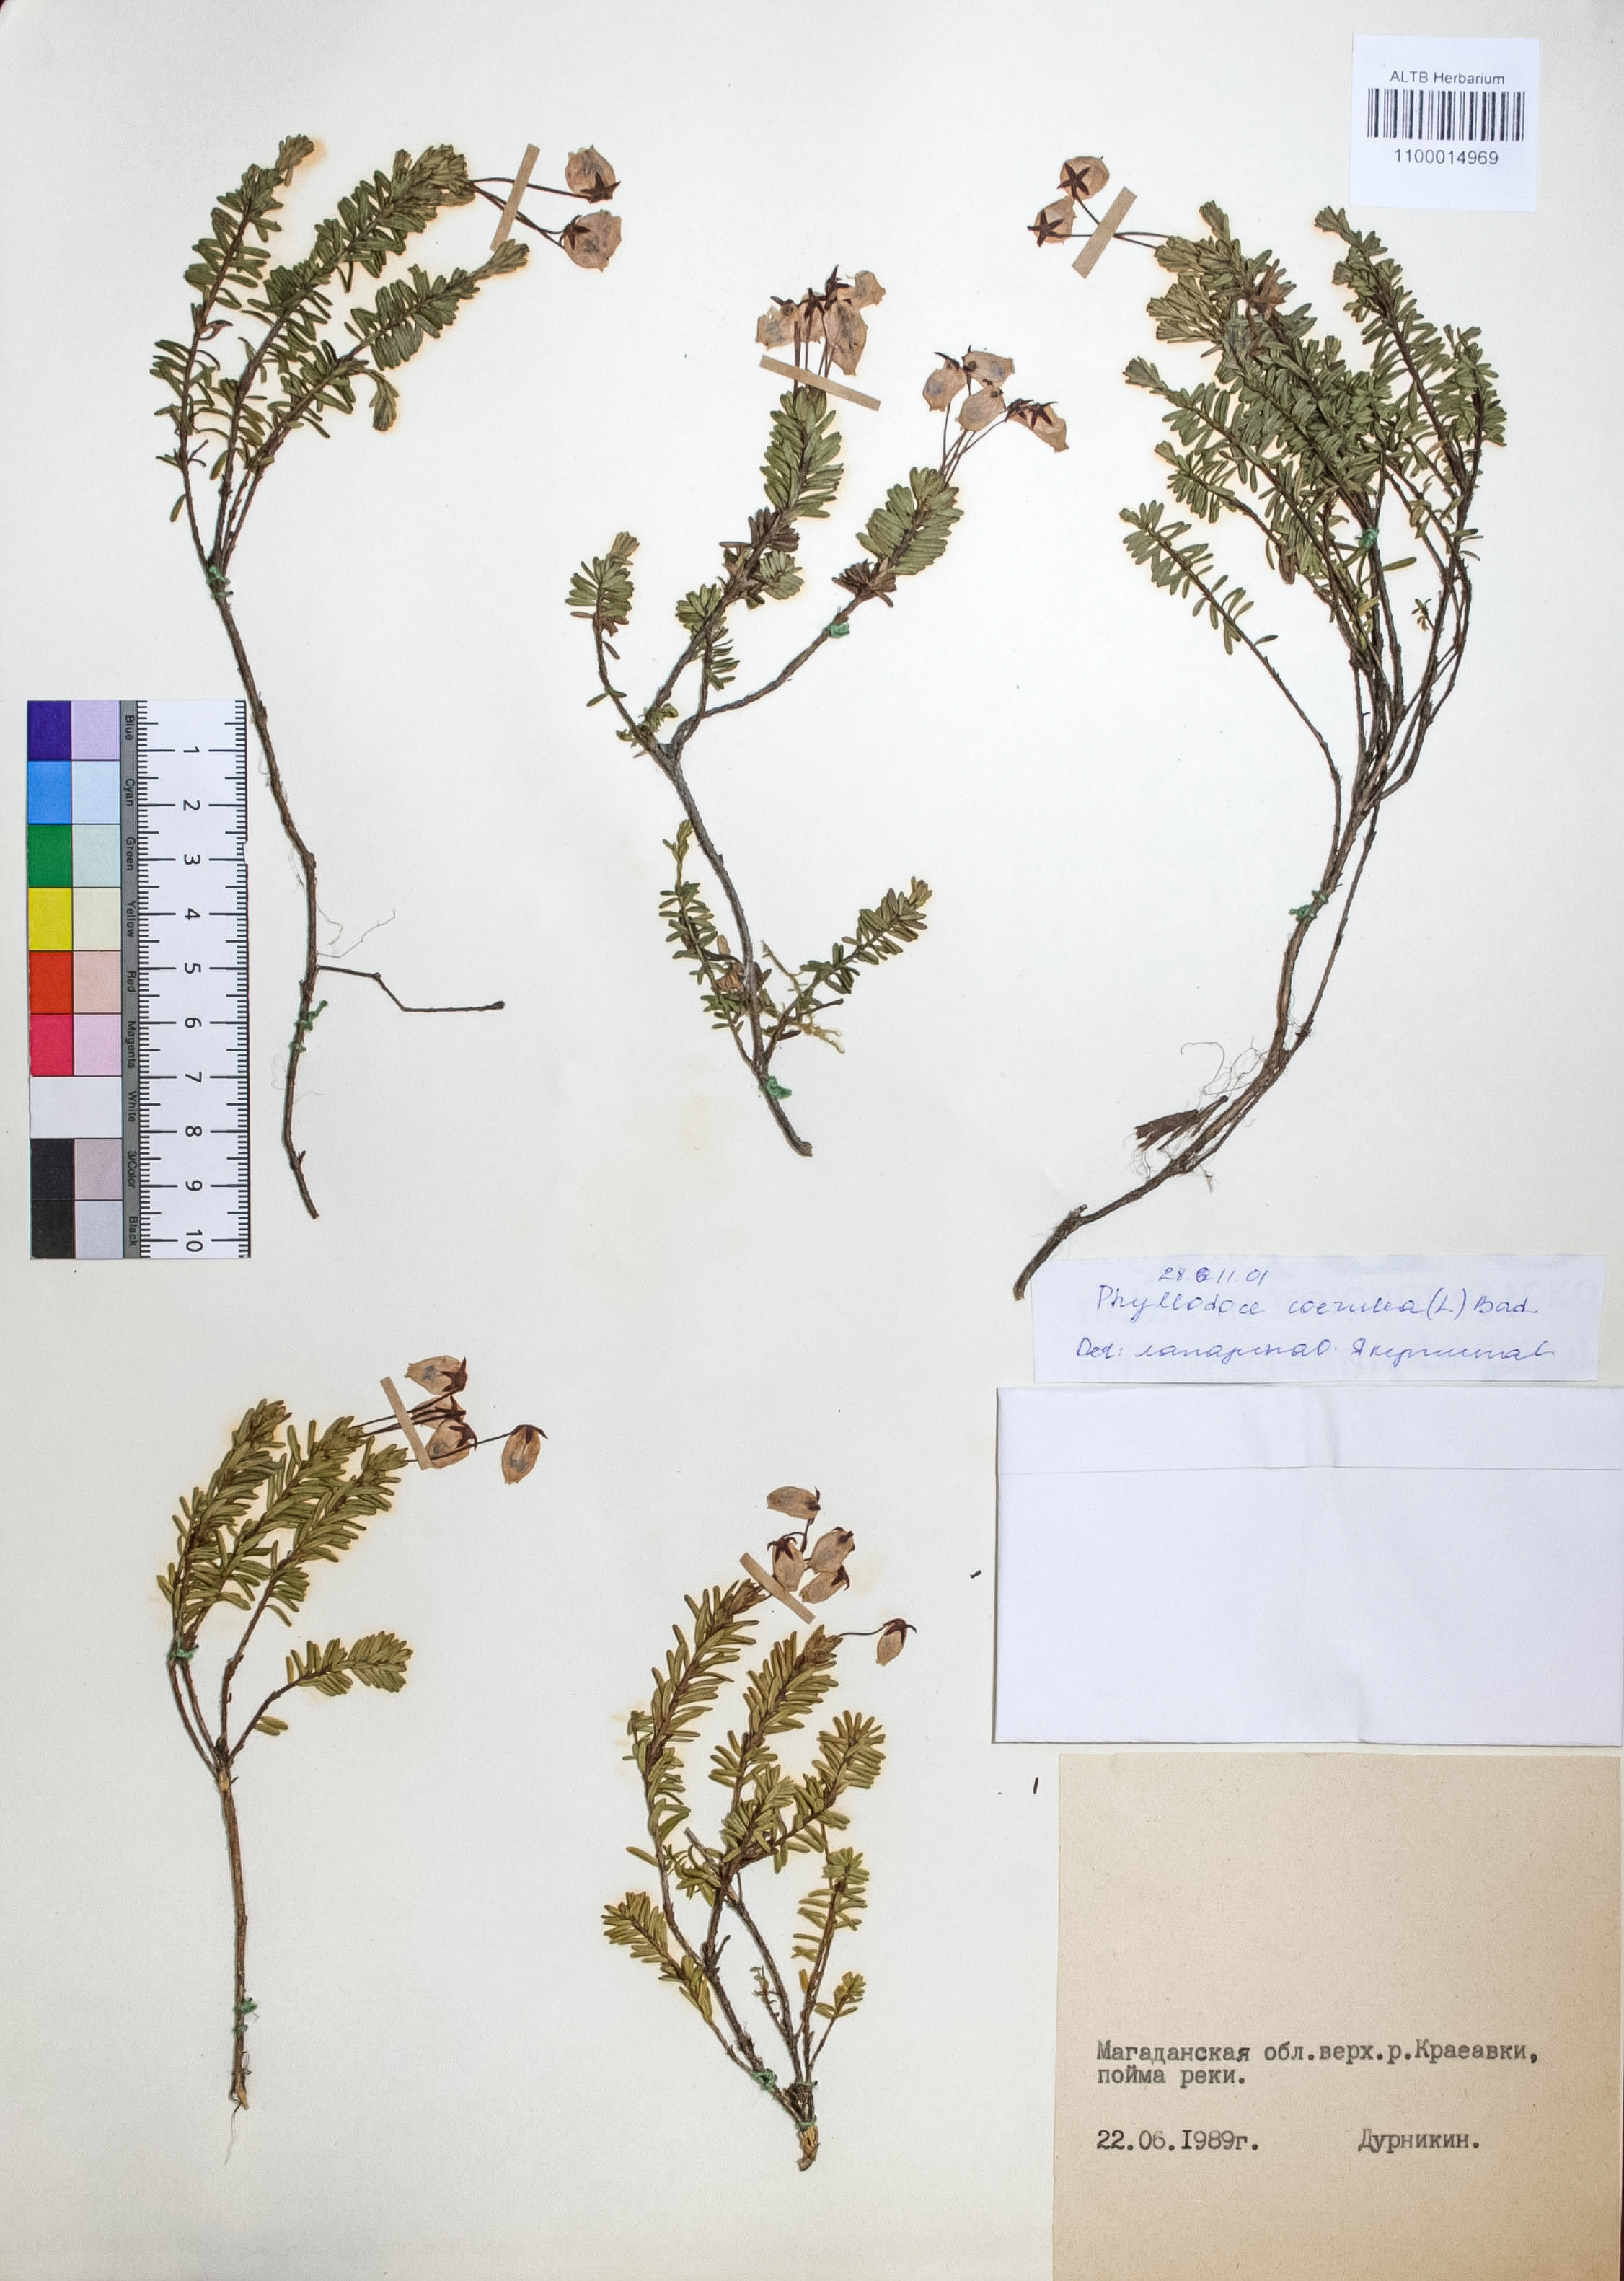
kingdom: Plantae
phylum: Tracheophyta
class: Magnoliopsida
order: Ericales
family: Ericaceae
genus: Phyllodoce
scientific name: Phyllodoce caerulea
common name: Blue heath
